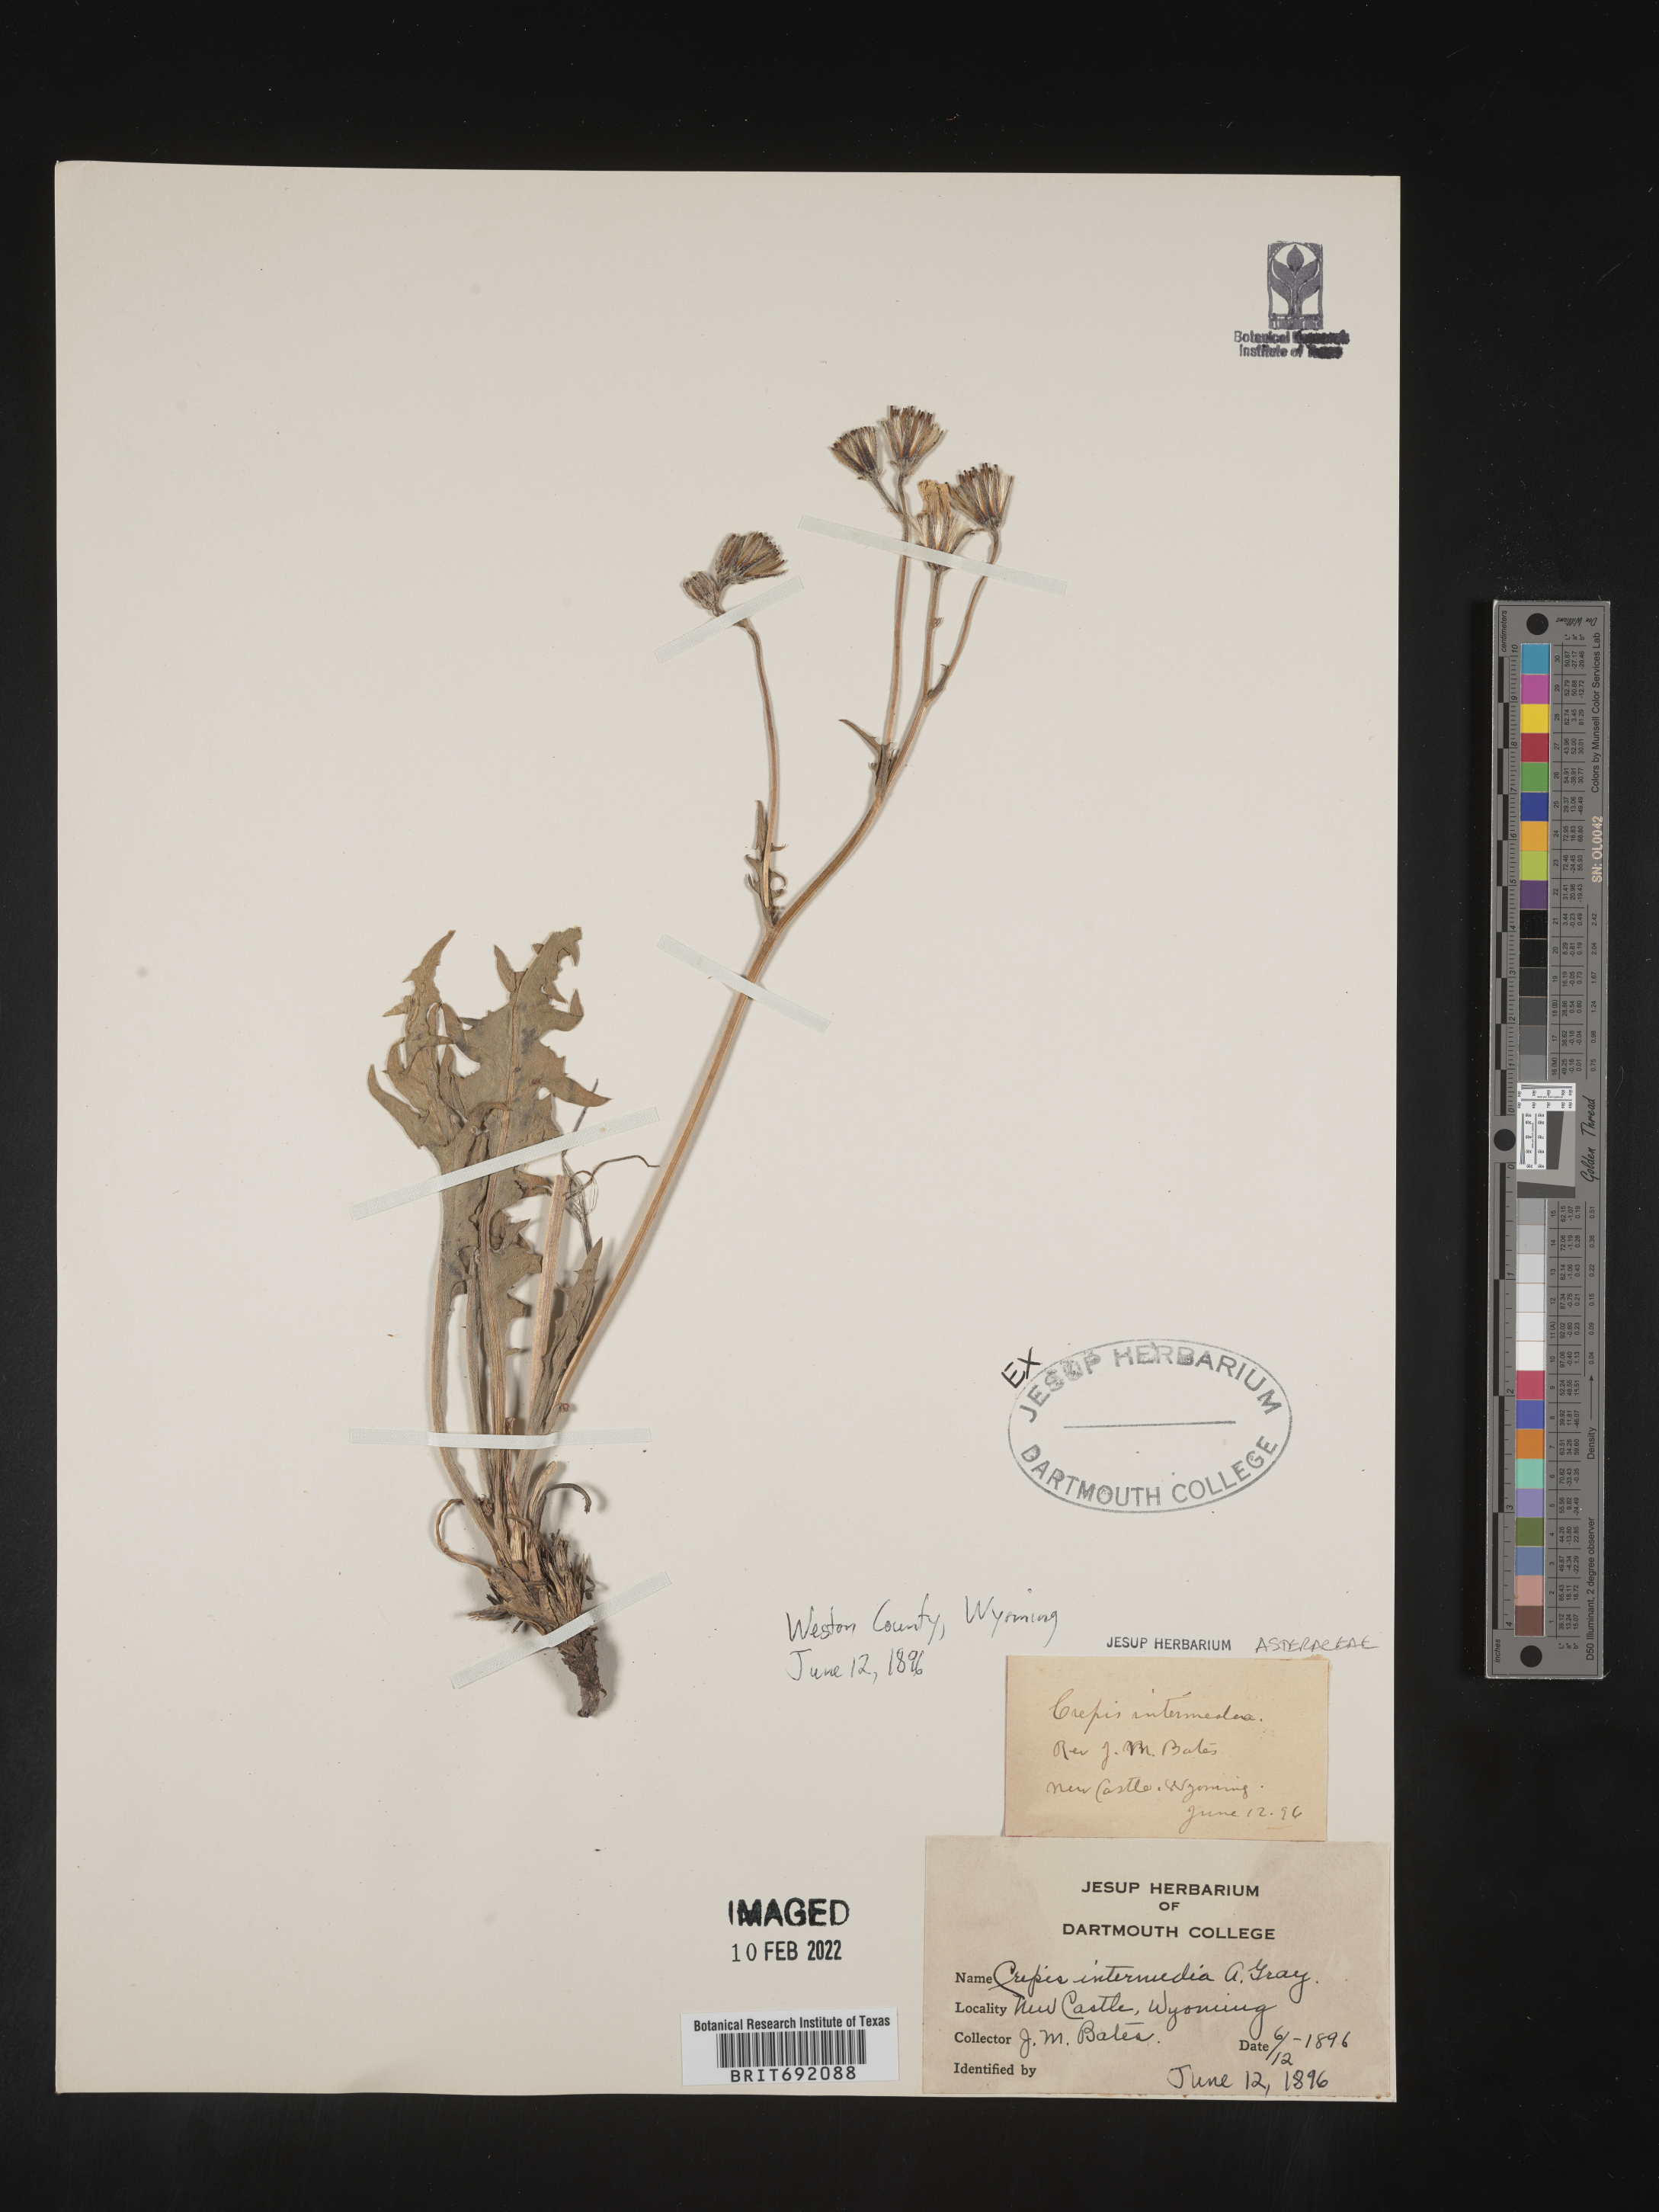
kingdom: Plantae
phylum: Tracheophyta
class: Magnoliopsida
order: Asterales
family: Asteraceae
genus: Crepis
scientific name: Crepis intermedia
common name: Limestone hawk's-beard
